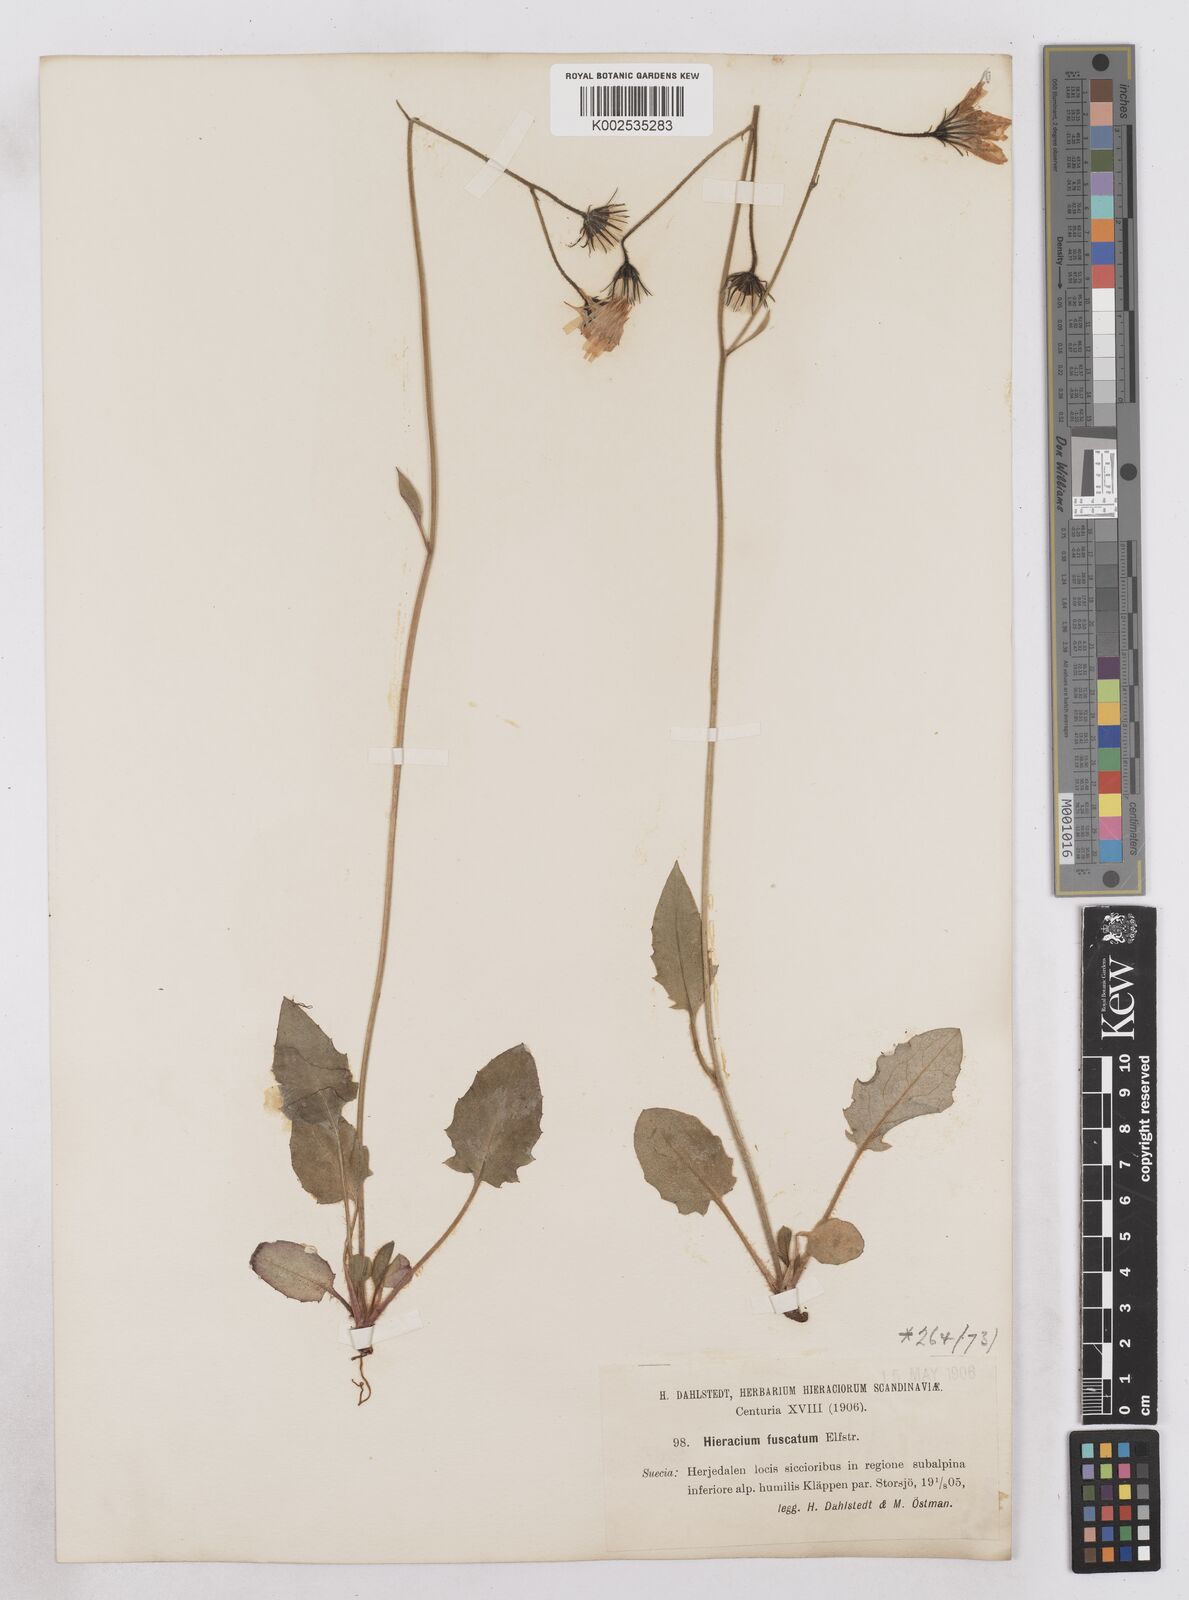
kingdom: Plantae
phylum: Tracheophyta
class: Magnoliopsida
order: Asterales
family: Asteraceae
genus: Hieracium
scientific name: Hieracium atratum
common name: Polar hawkweed
